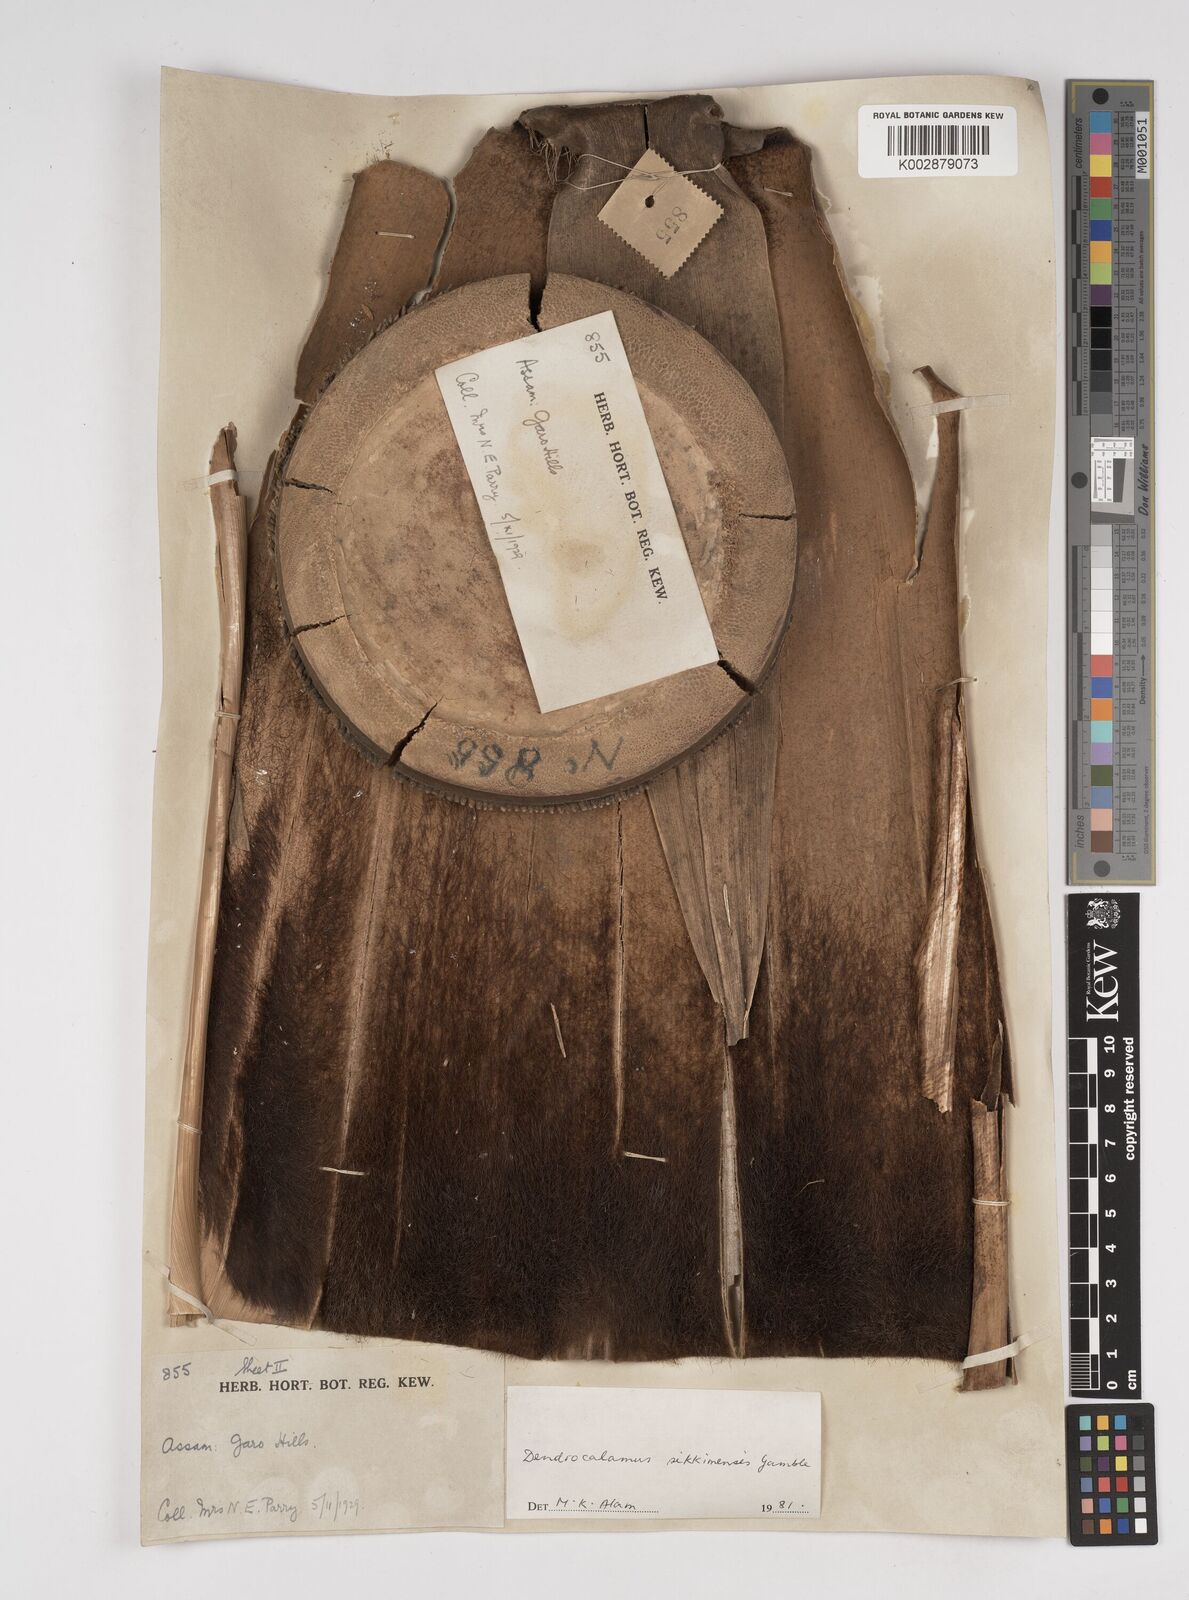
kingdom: Plantae
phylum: Tracheophyta
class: Liliopsida
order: Poales
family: Poaceae
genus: Dendrocalamus
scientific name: Dendrocalamus sikkimensis
